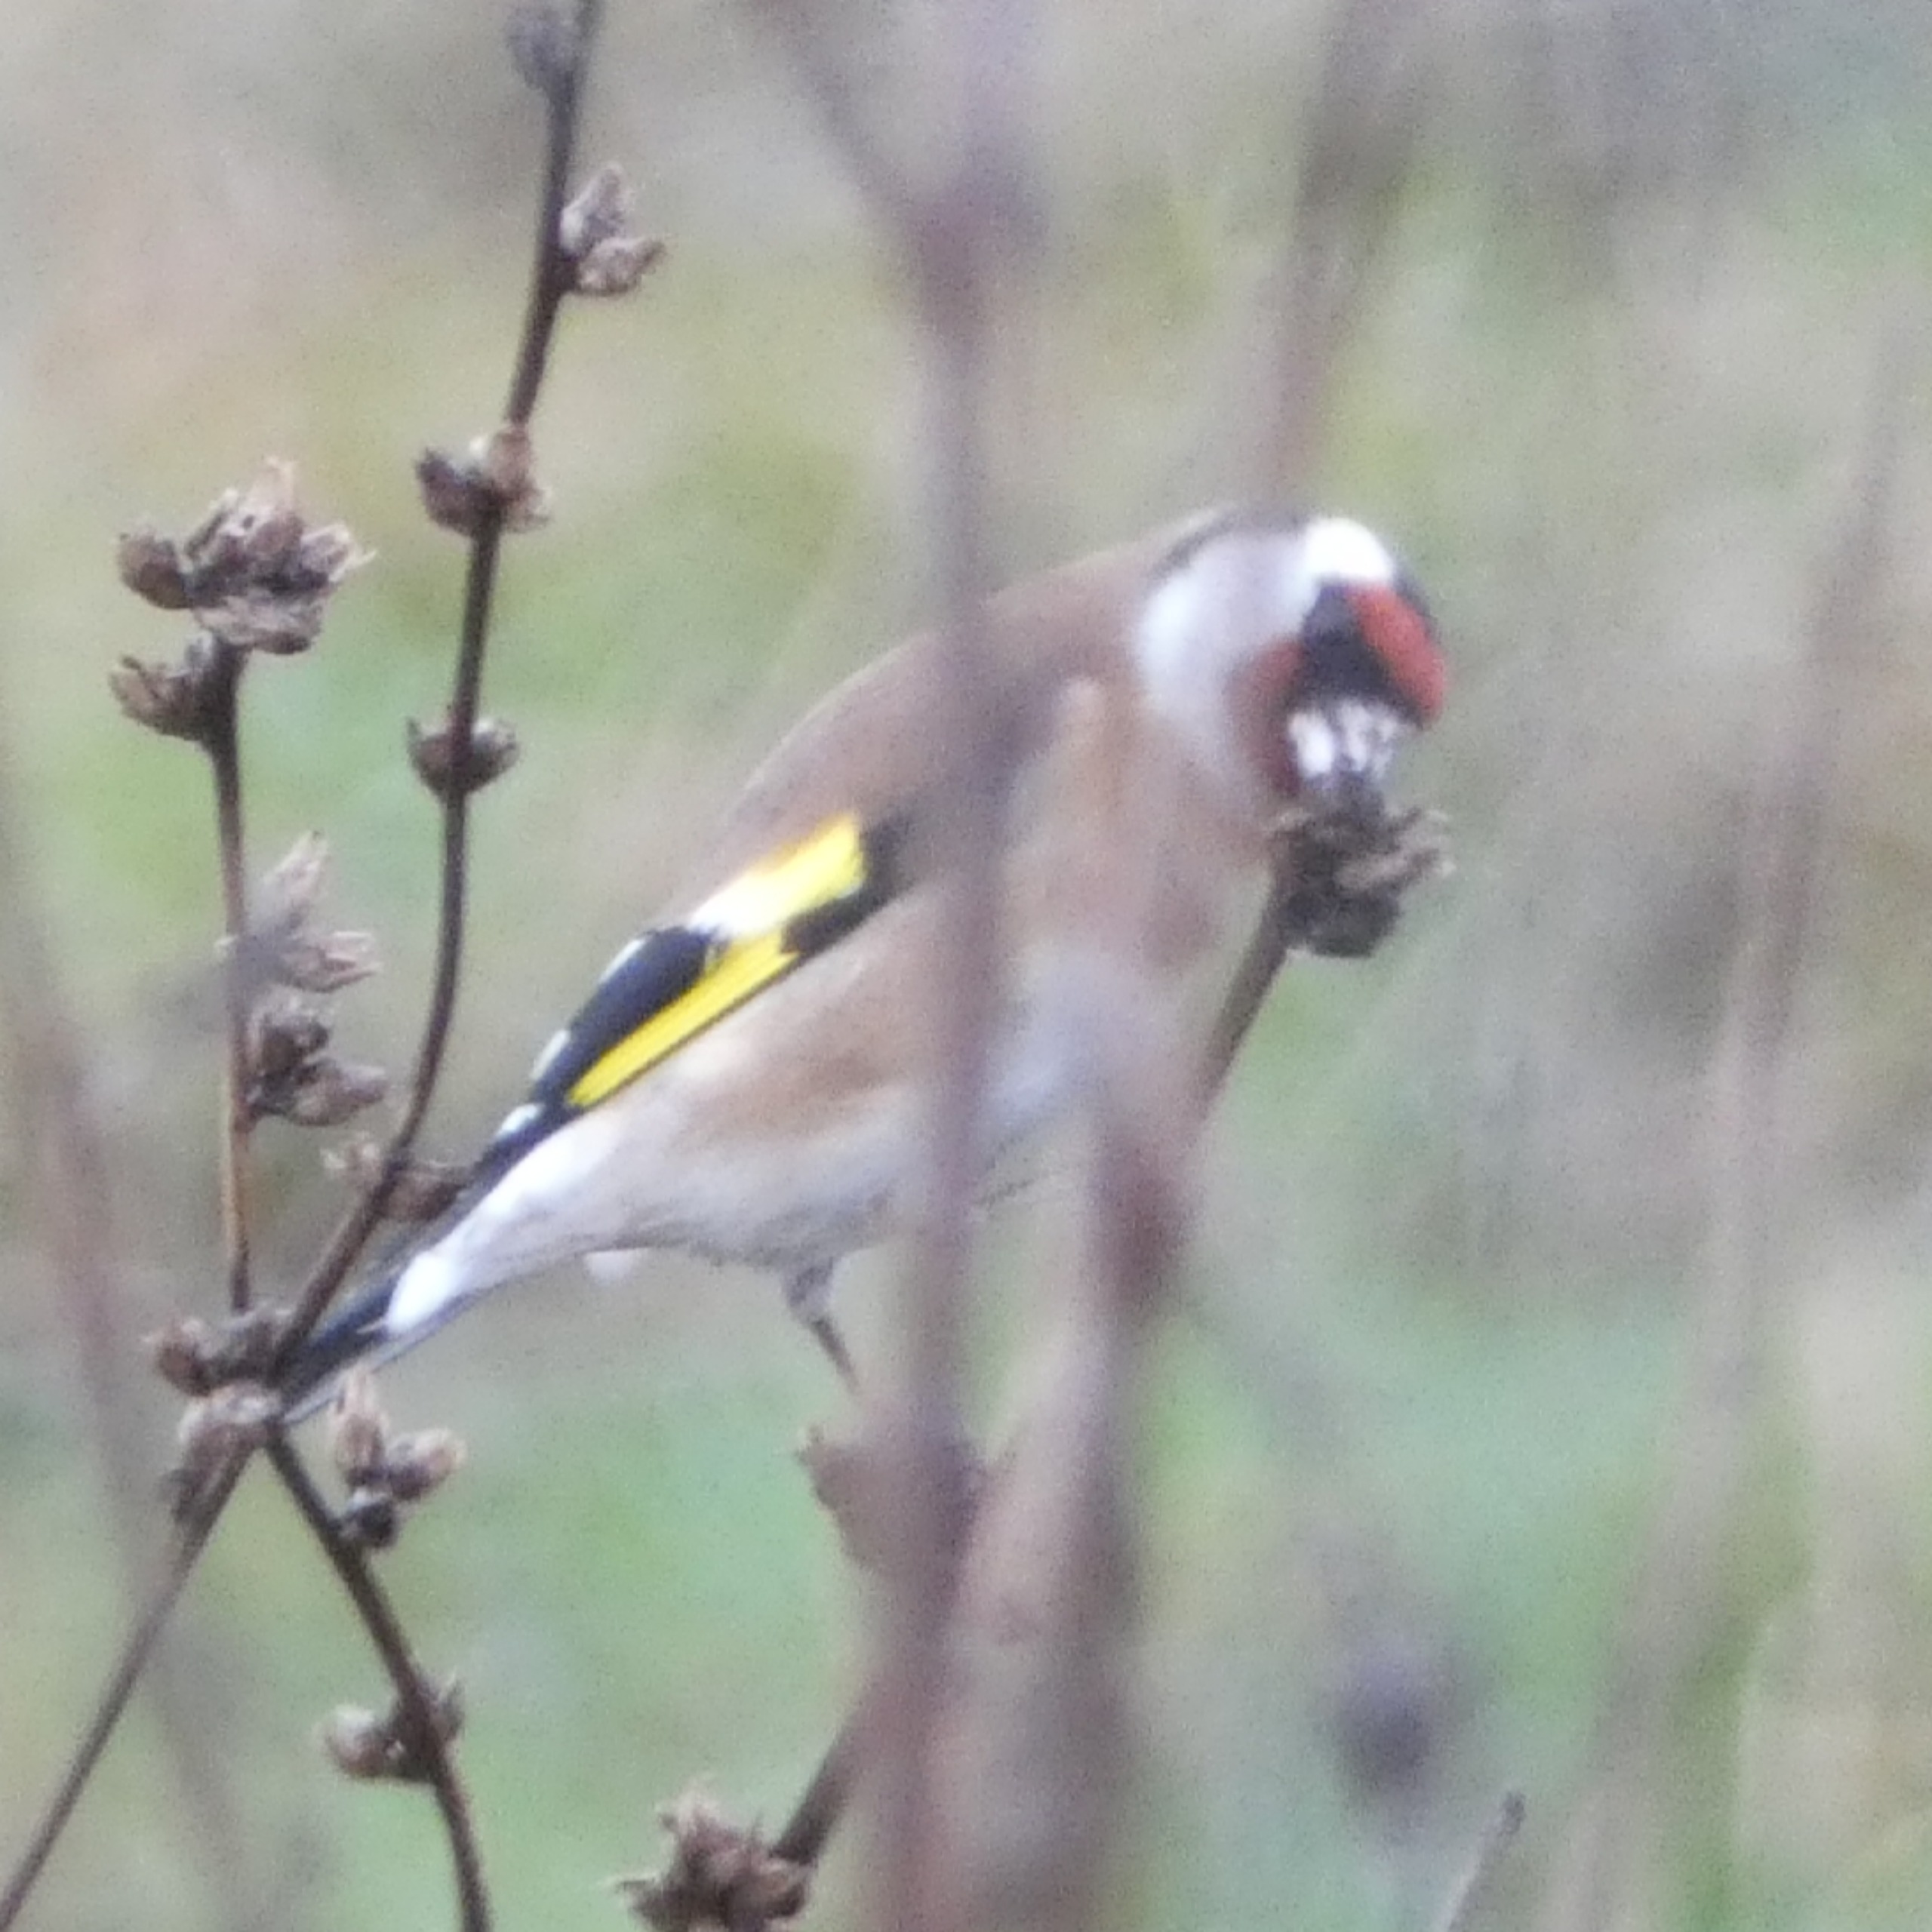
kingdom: Animalia
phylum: Chordata
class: Aves
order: Passeriformes
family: Fringillidae
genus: Carduelis
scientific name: Carduelis carduelis
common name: Stillits
